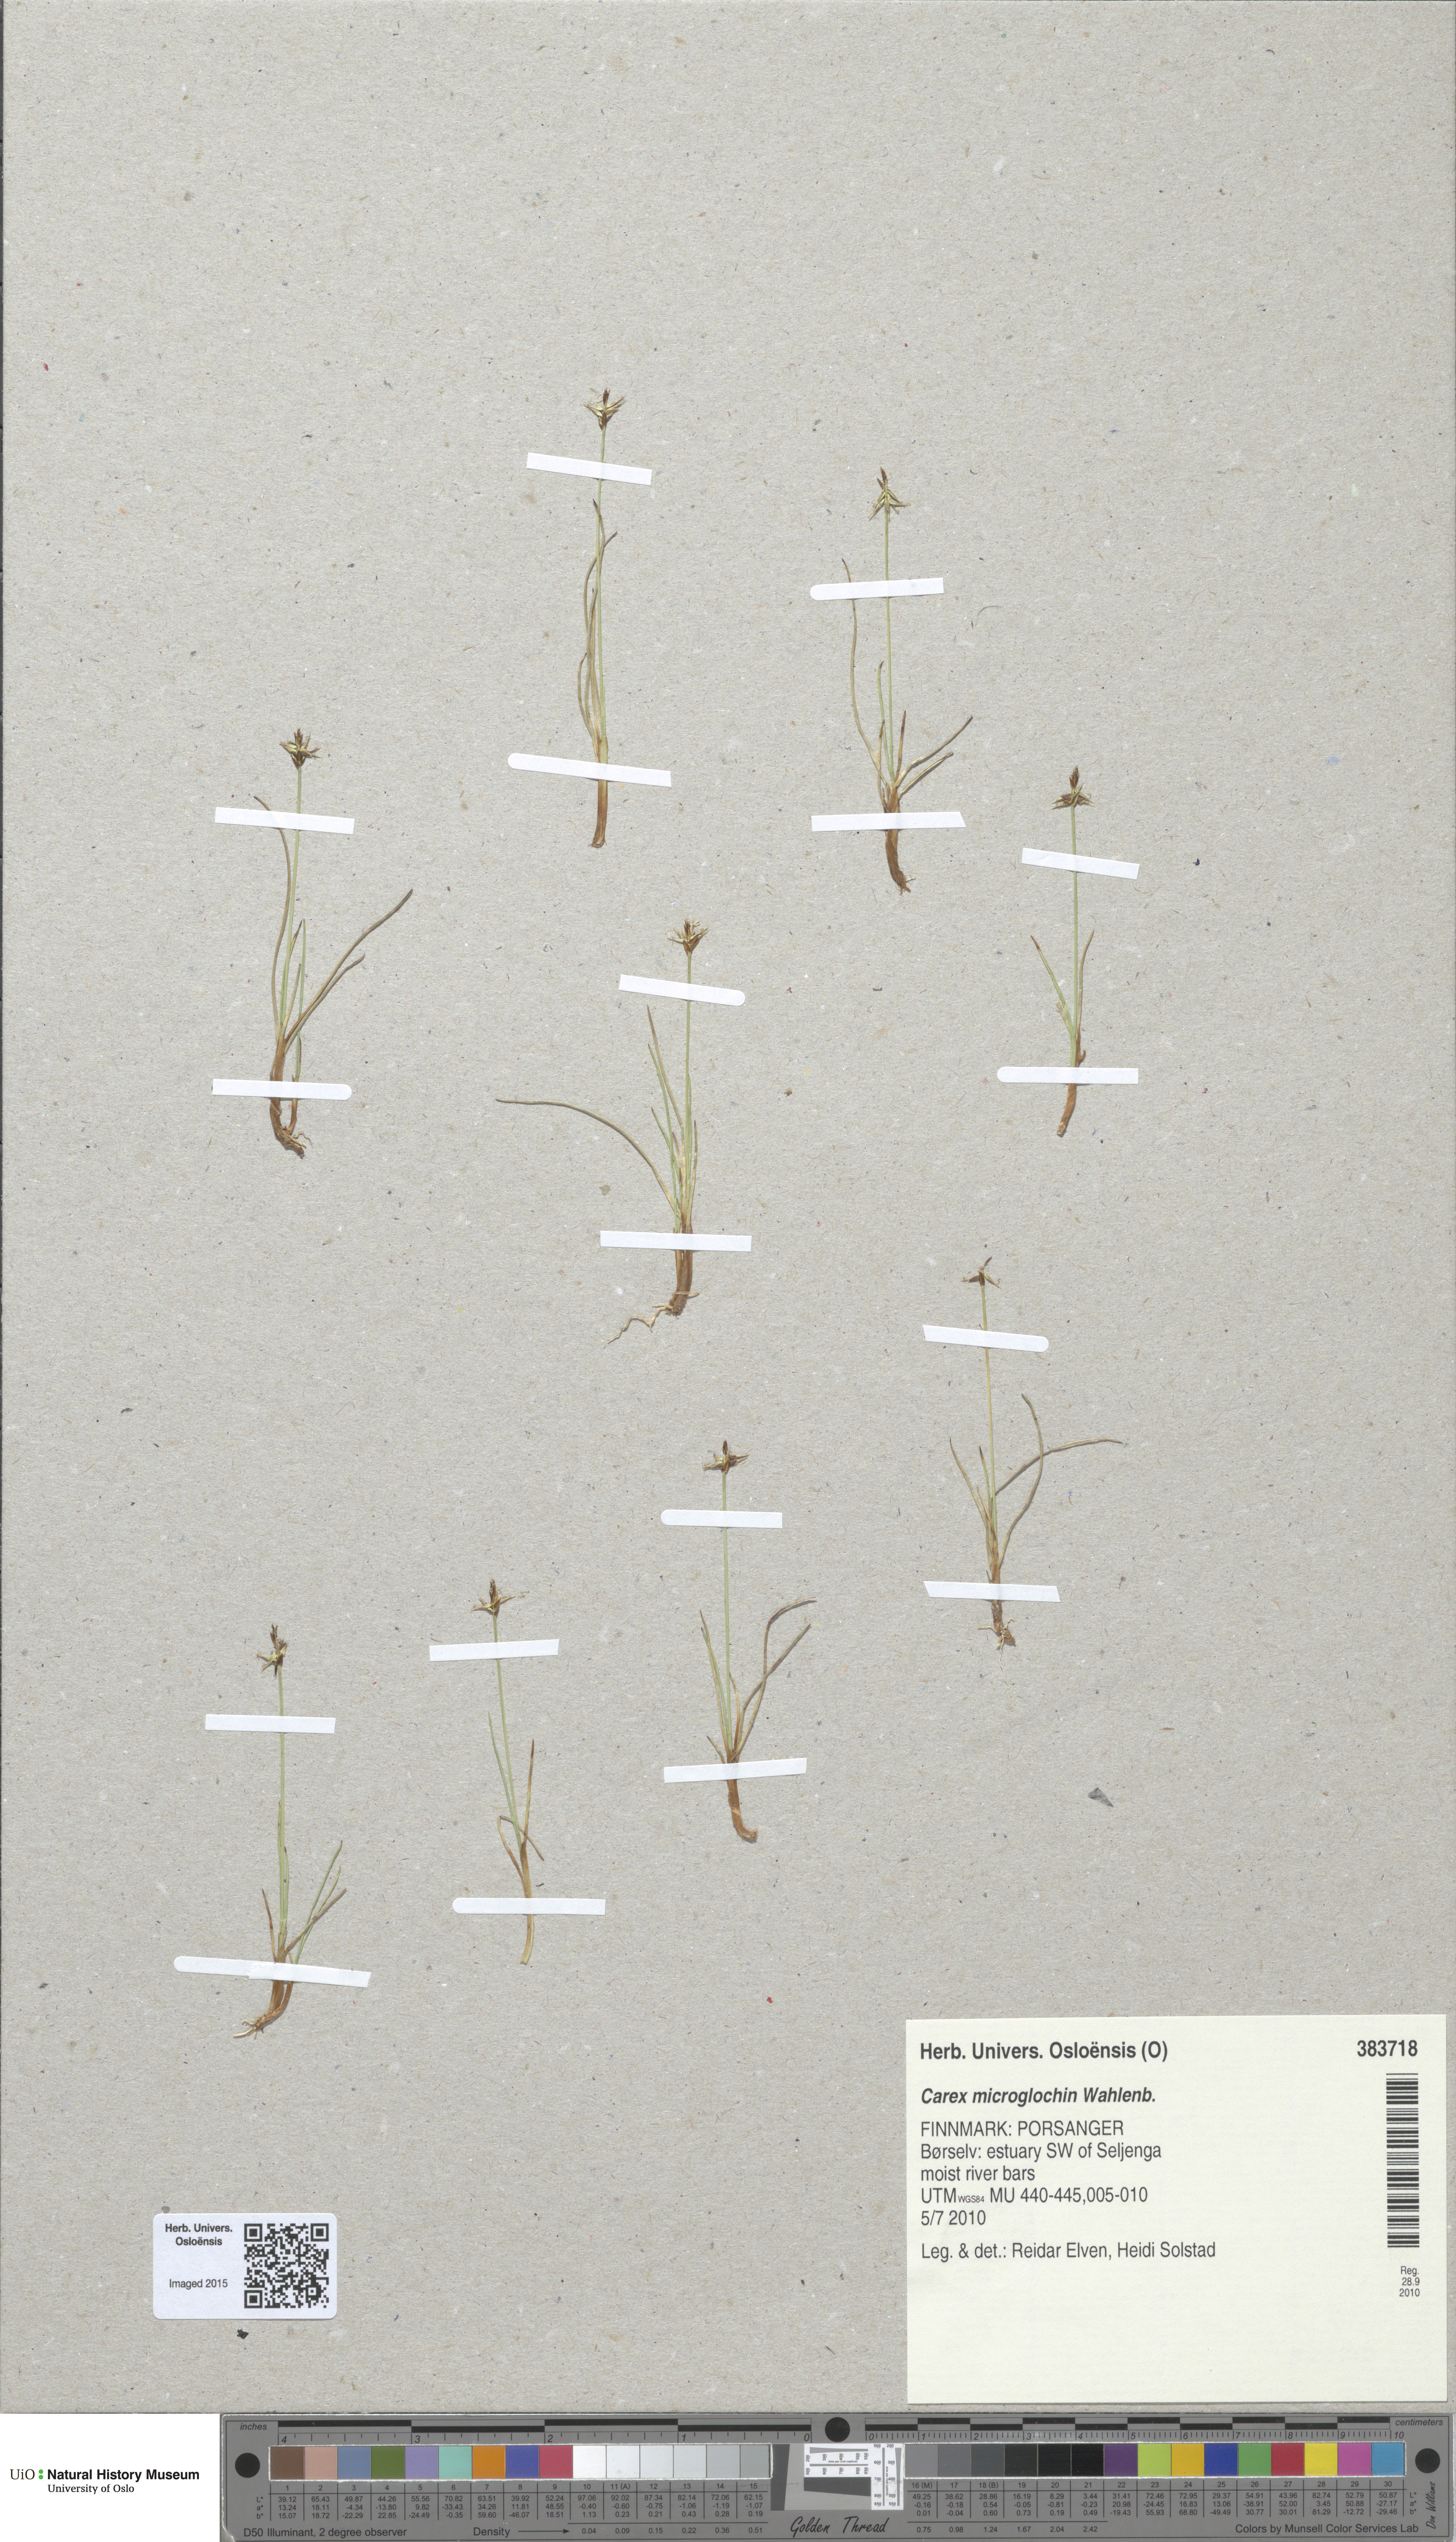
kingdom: Plantae
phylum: Tracheophyta
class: Liliopsida
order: Poales
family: Cyperaceae
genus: Carex
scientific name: Carex microglochin
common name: Bristle sedge
